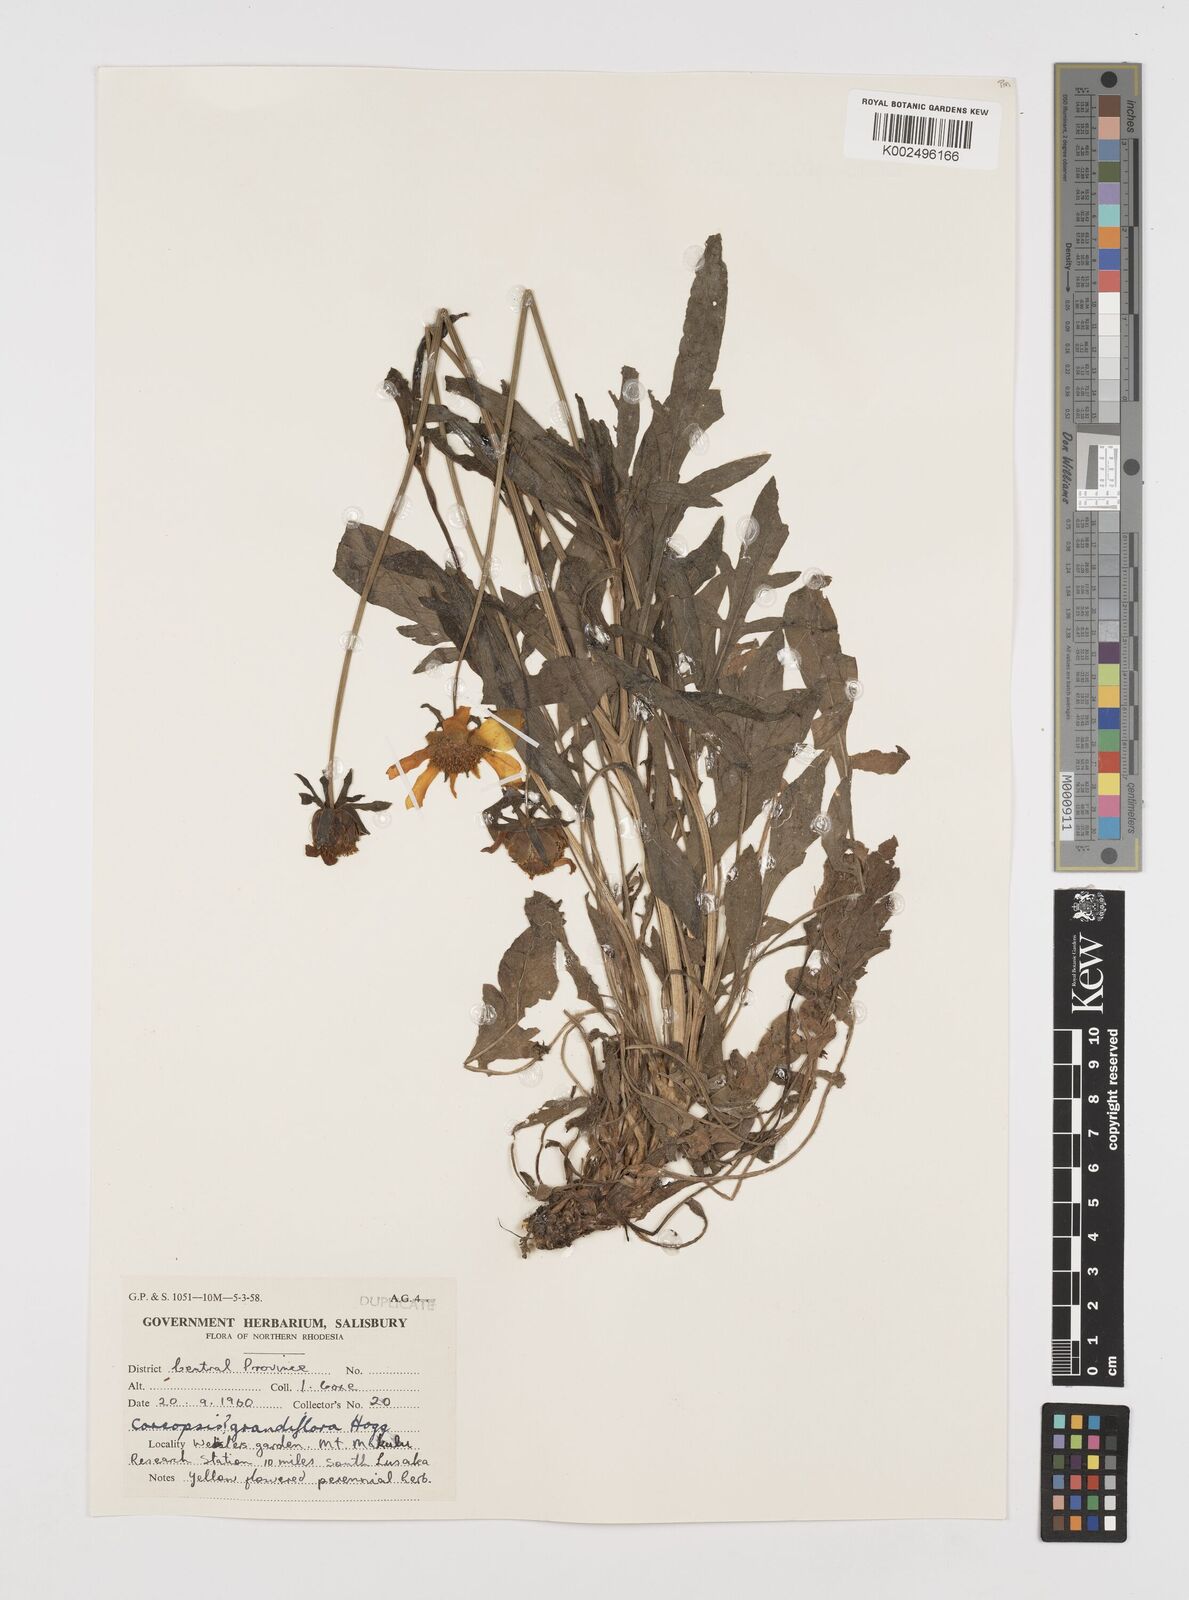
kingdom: Plantae
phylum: Tracheophyta
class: Magnoliopsida
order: Asterales
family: Asteraceae
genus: Coreopsis
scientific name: Coreopsis grandiflora
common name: Large-flowered tickseed
